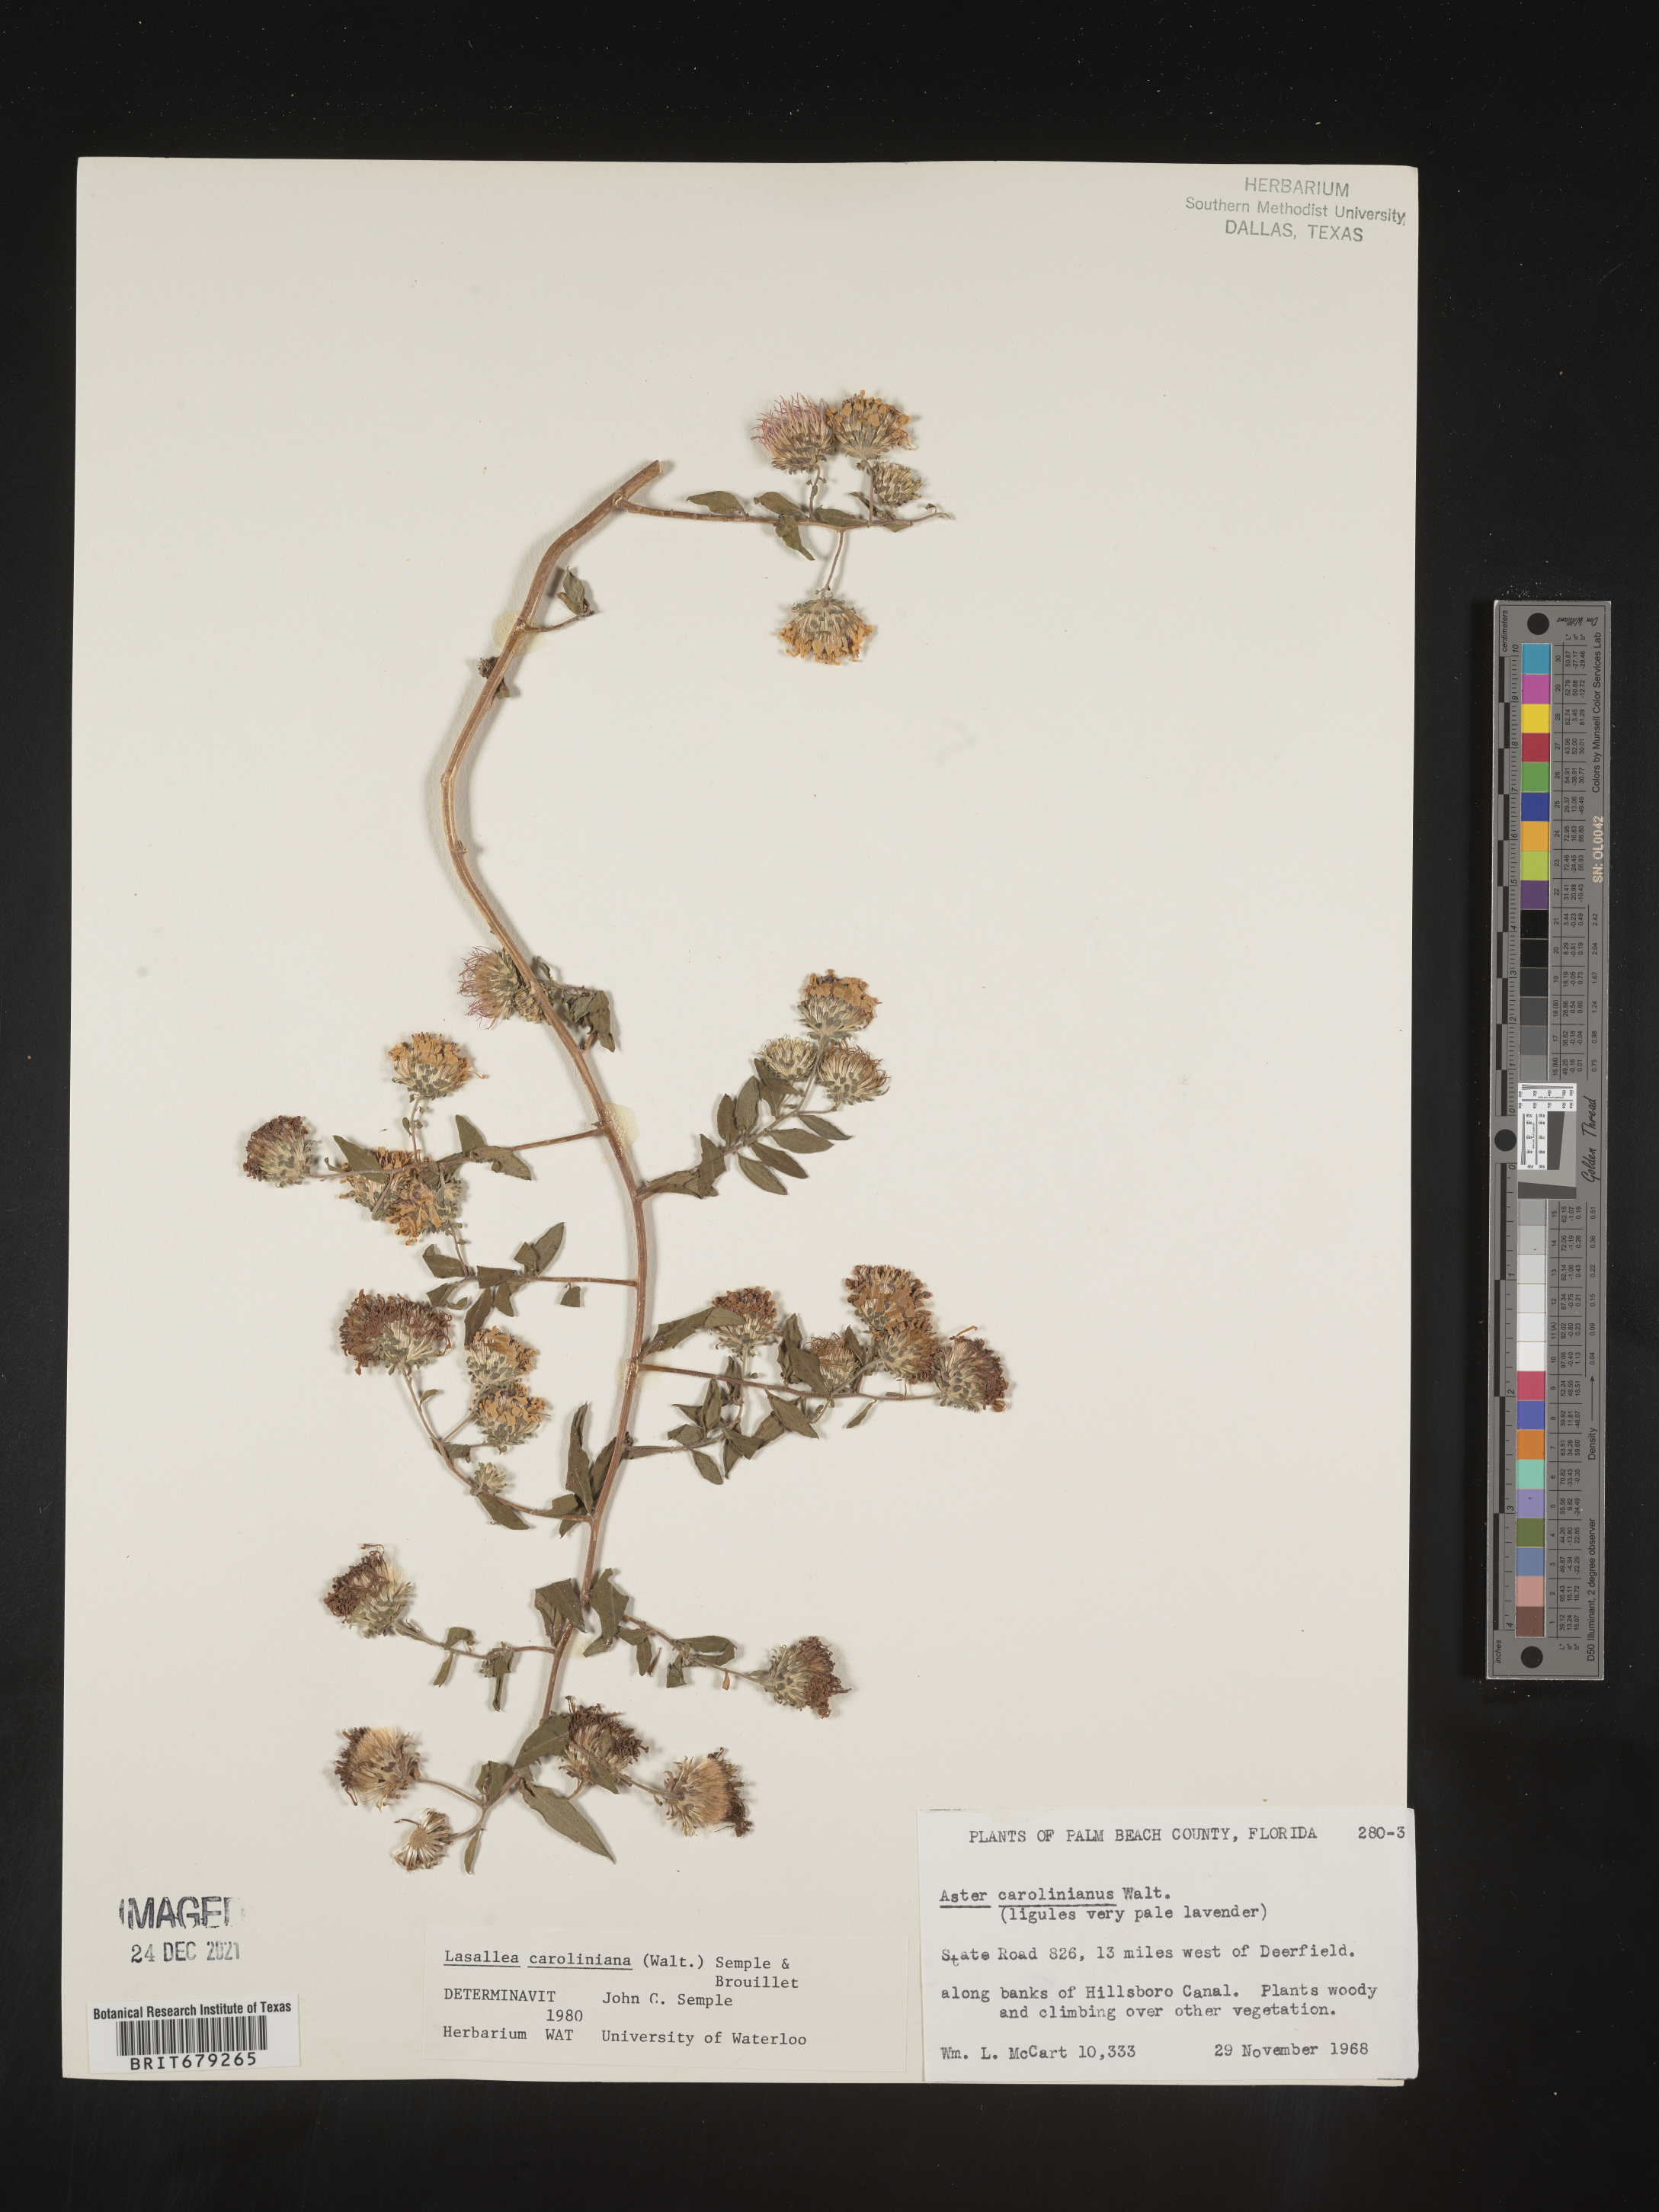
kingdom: Plantae
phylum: Tracheophyta
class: Magnoliopsida
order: Asterales
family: Asteraceae
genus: Ampelaster
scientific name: Ampelaster
